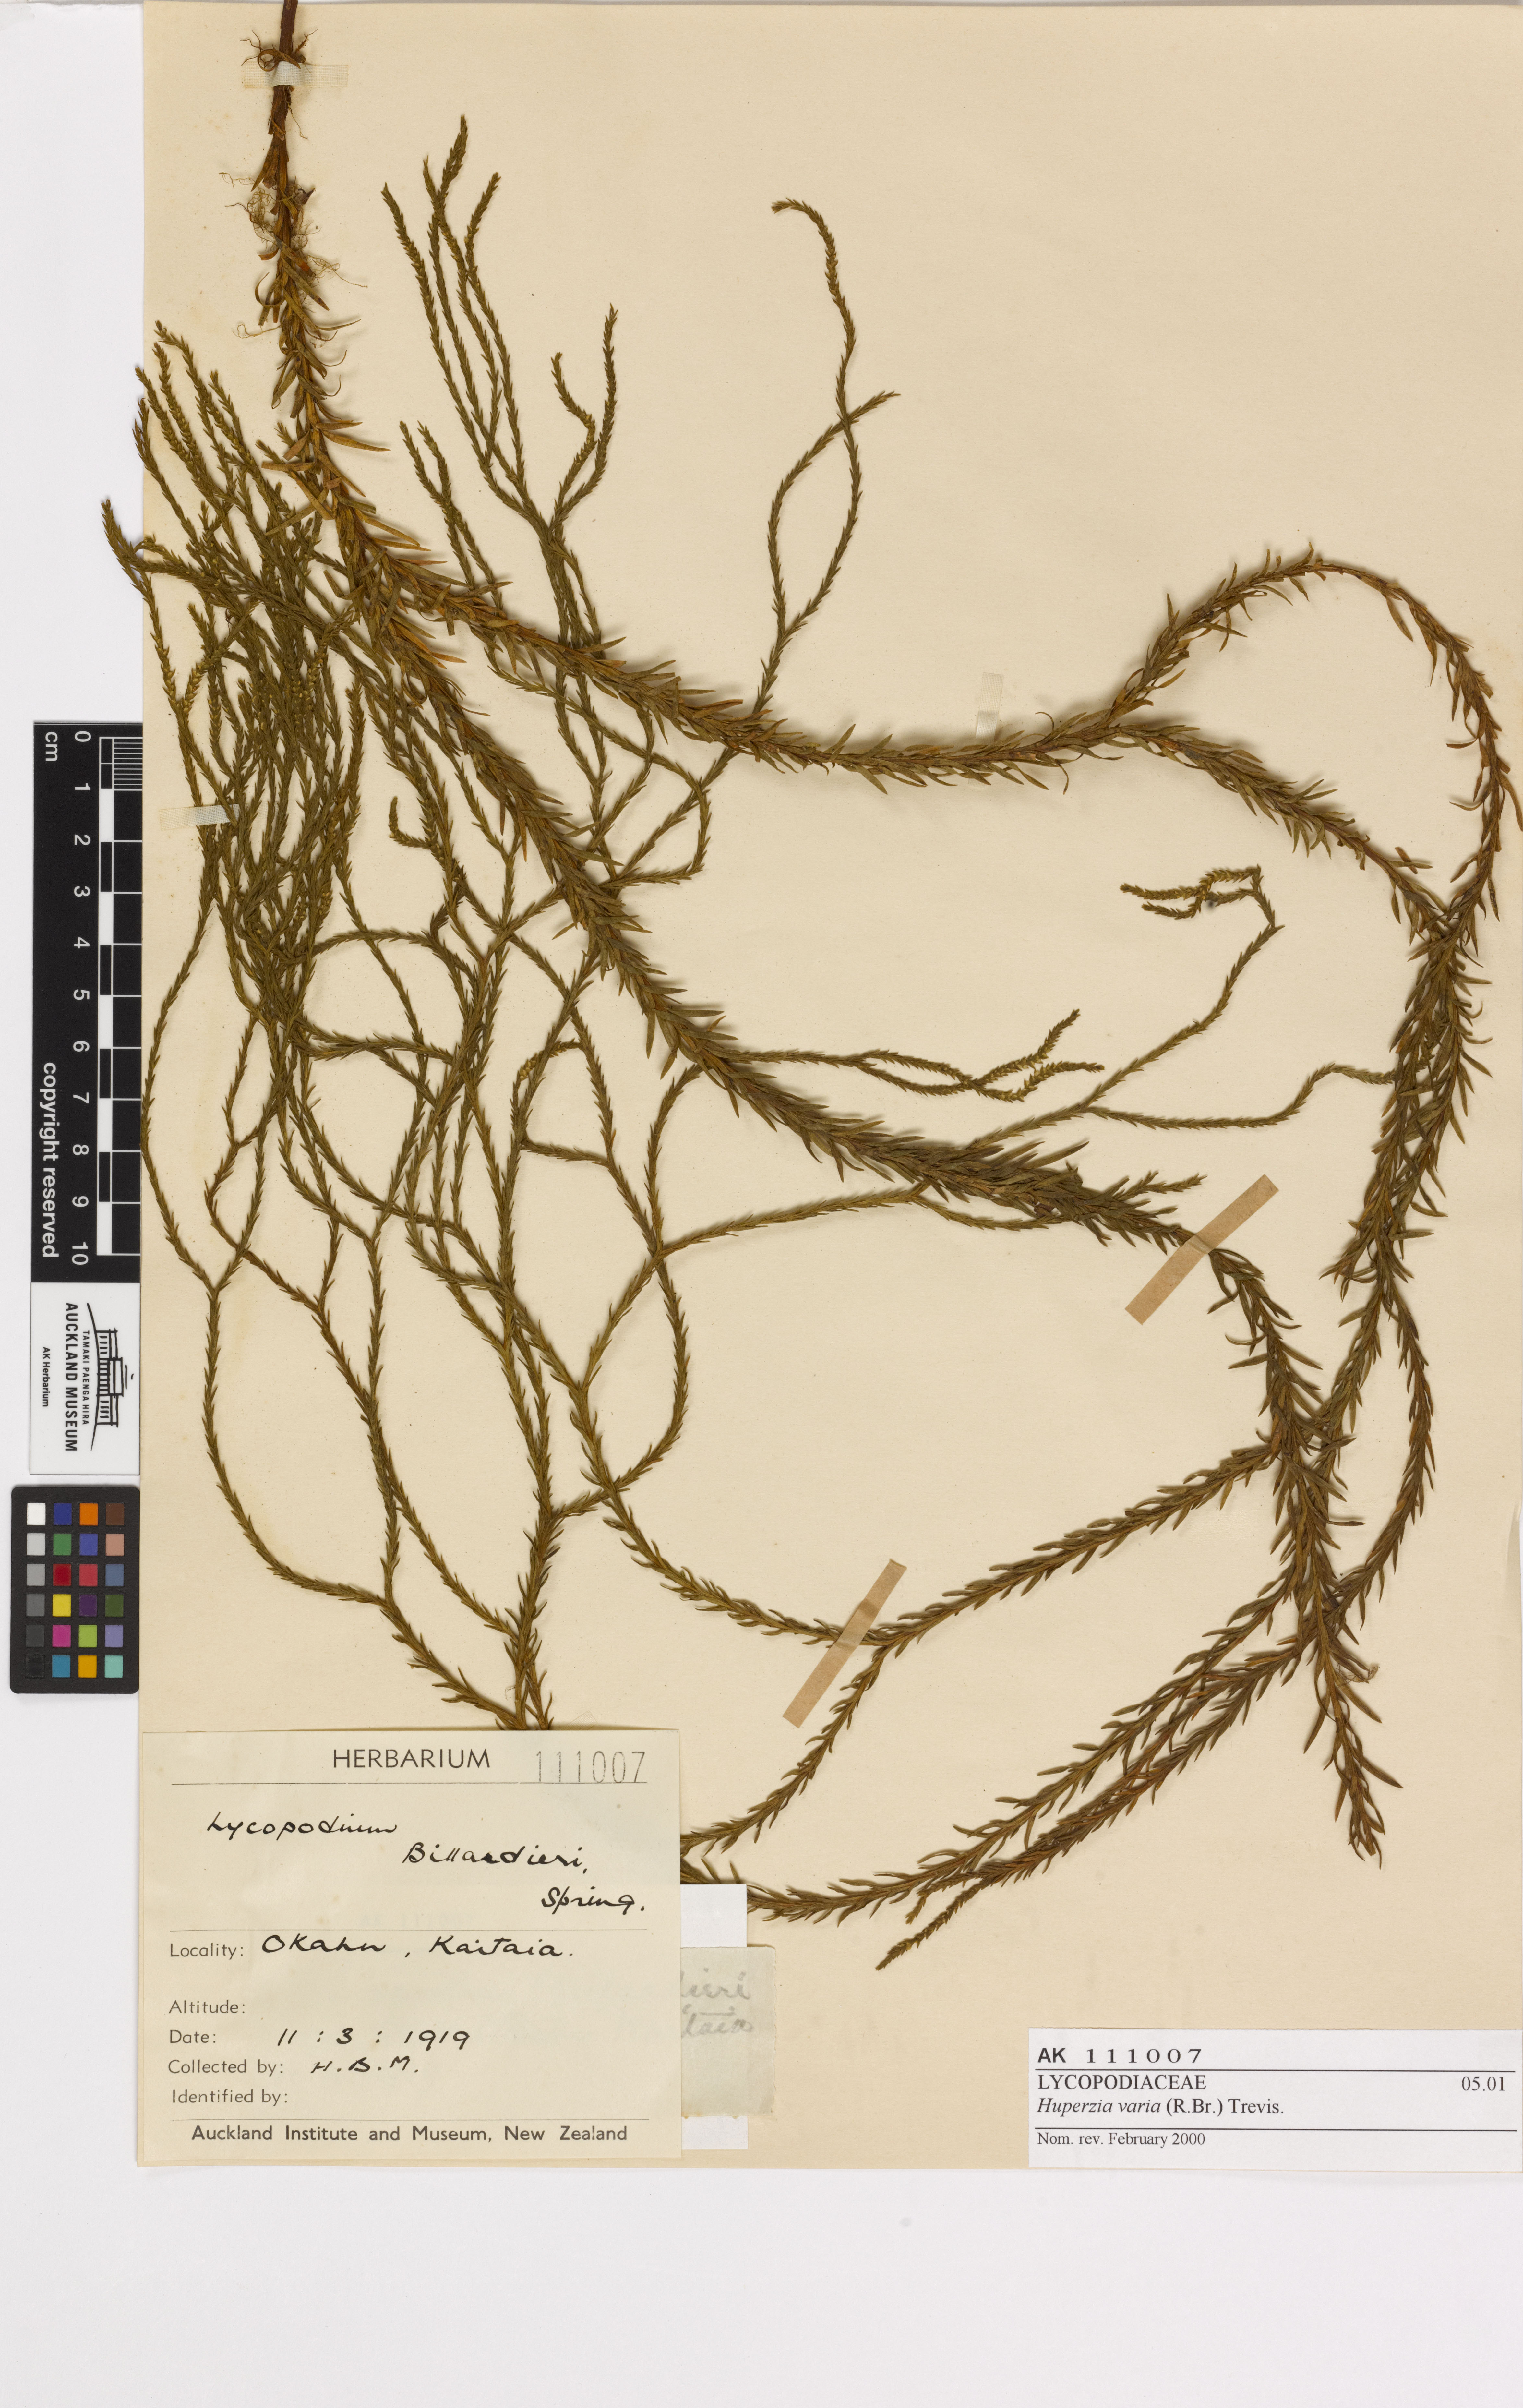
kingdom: Plantae
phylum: Tracheophyta
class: Lycopodiopsida
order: Lycopodiales
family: Lycopodiaceae
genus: Phlegmariurus
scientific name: Phlegmariurus billardierei
